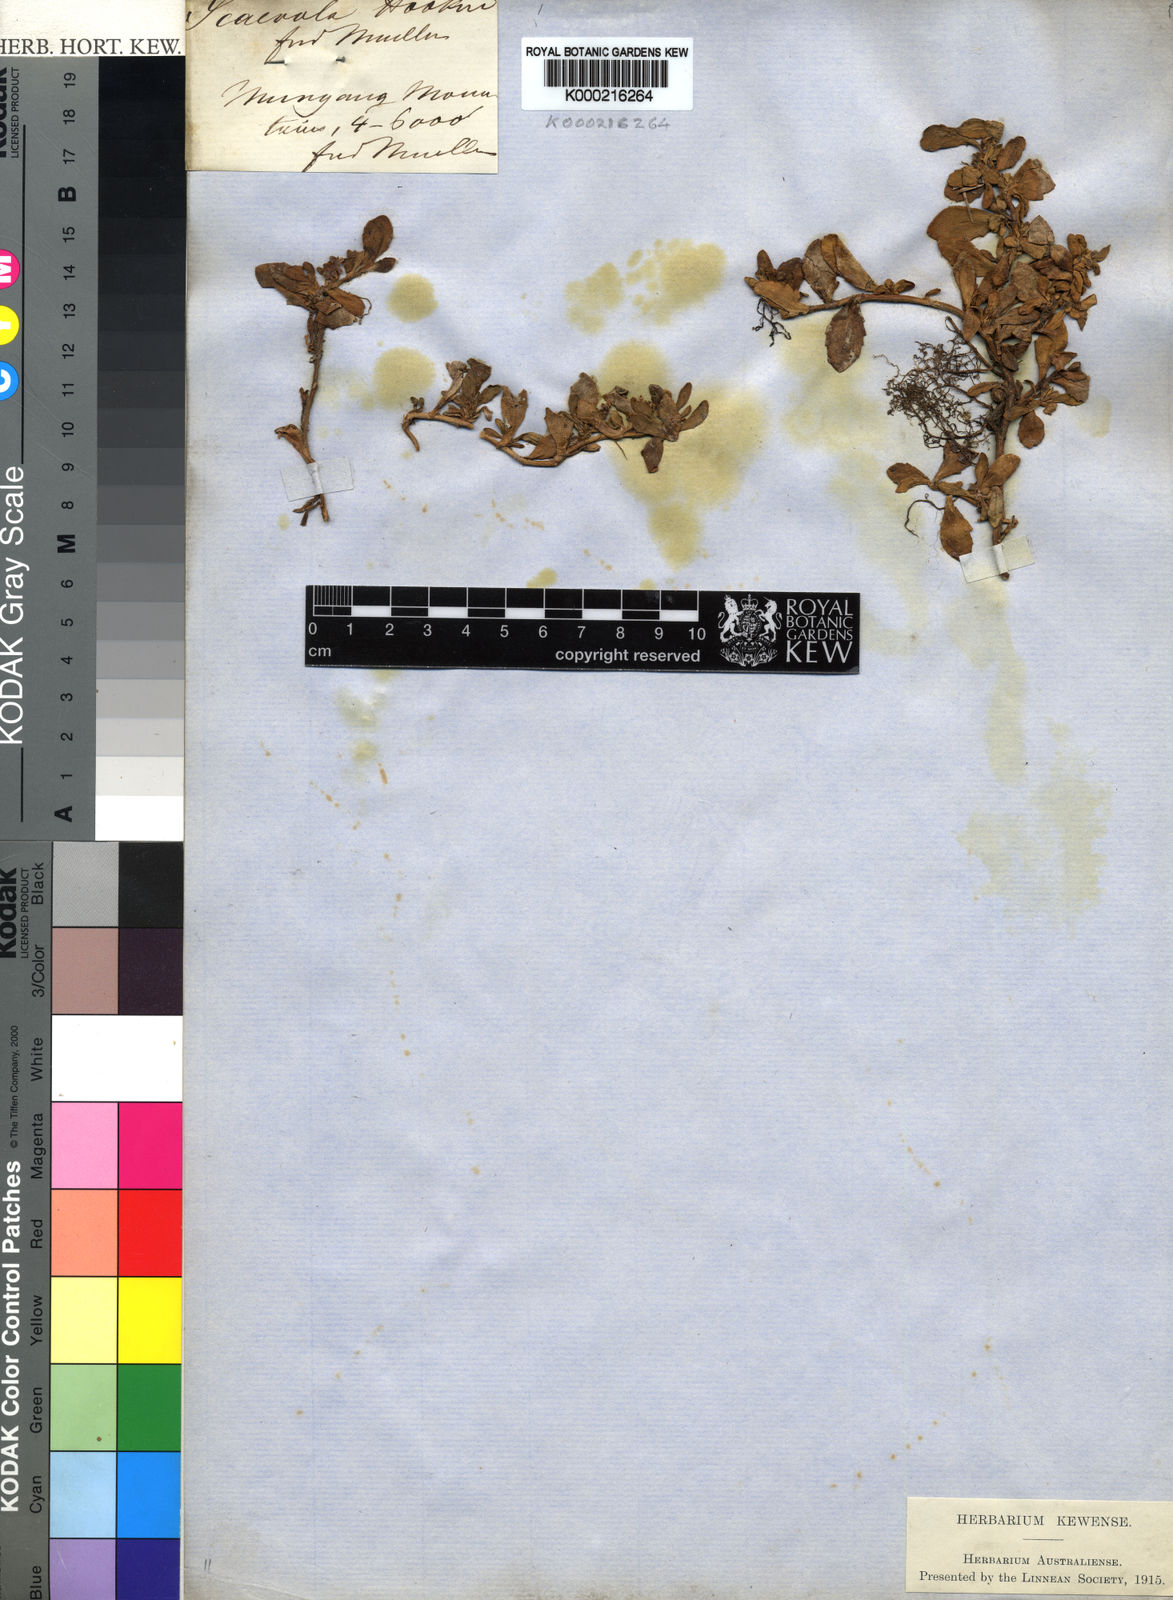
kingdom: Plantae
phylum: Tracheophyta
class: Magnoliopsida
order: Asterales
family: Goodeniaceae
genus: Scaevola
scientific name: Scaevola hookeri
